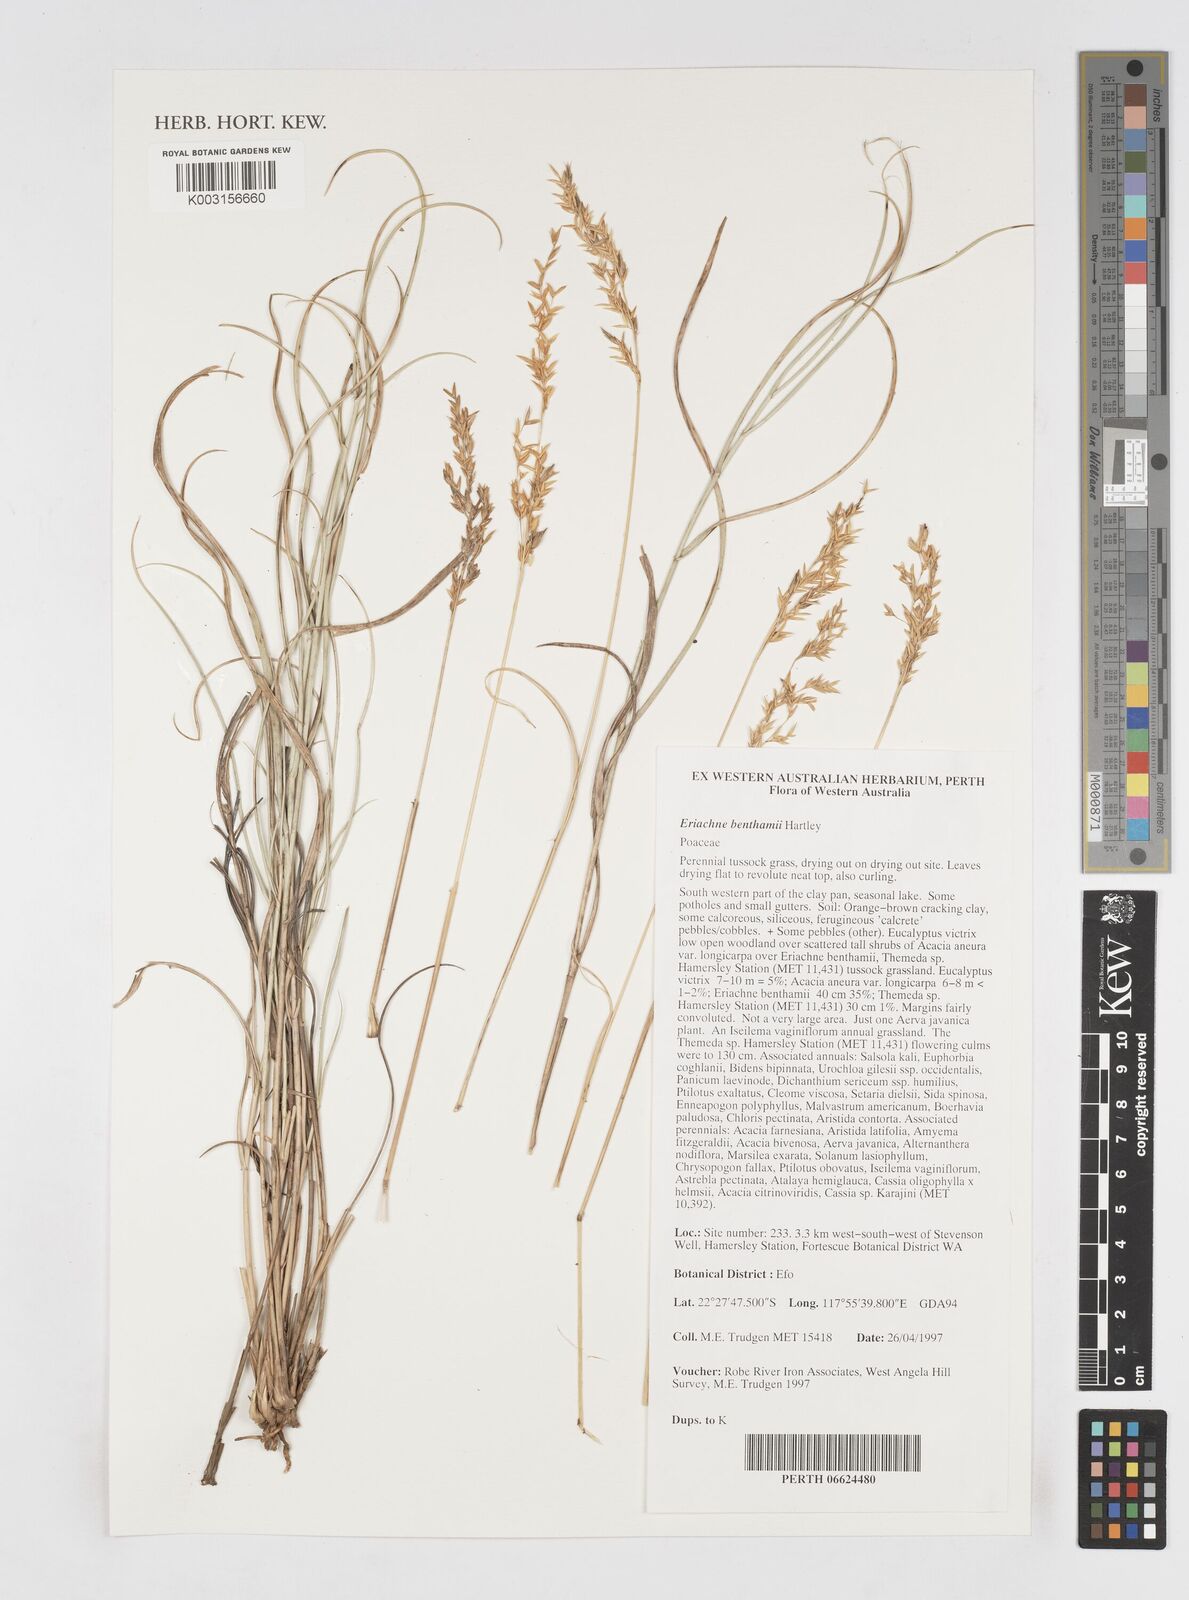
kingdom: Plantae
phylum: Tracheophyta
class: Liliopsida
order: Poales
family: Poaceae
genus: Eriachne
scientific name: Eriachne benthamii
